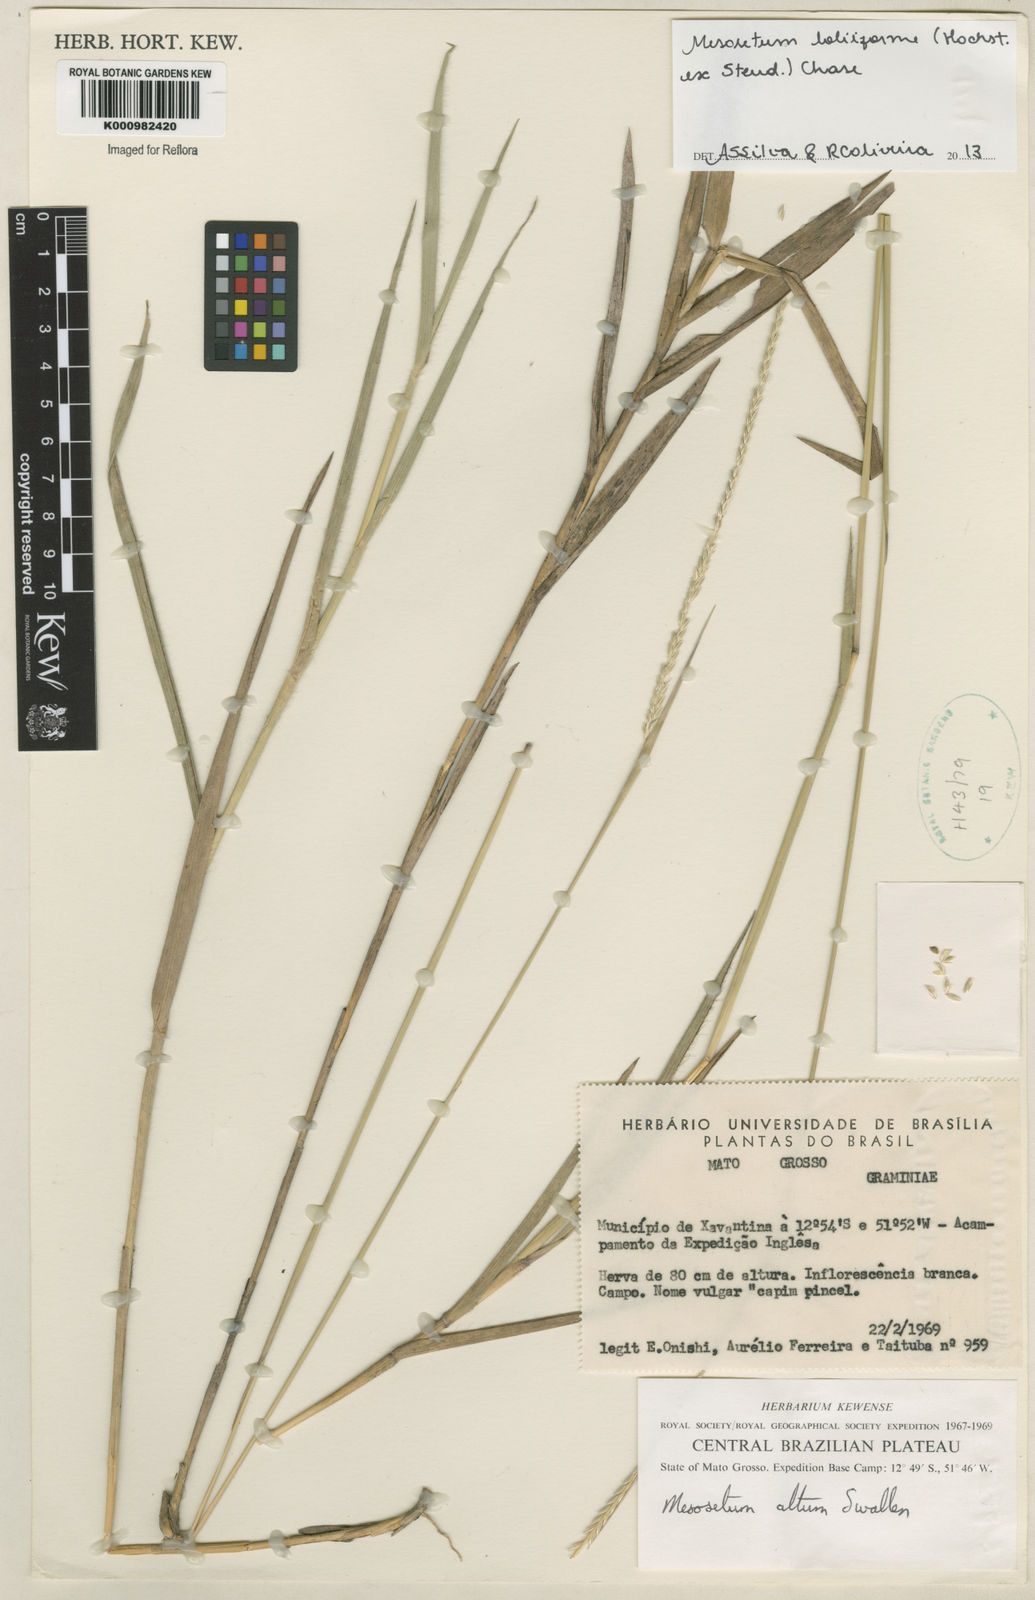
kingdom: Plantae
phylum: Tracheophyta
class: Liliopsida
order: Poales
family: Poaceae
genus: Mesosetum
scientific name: Mesosetum
